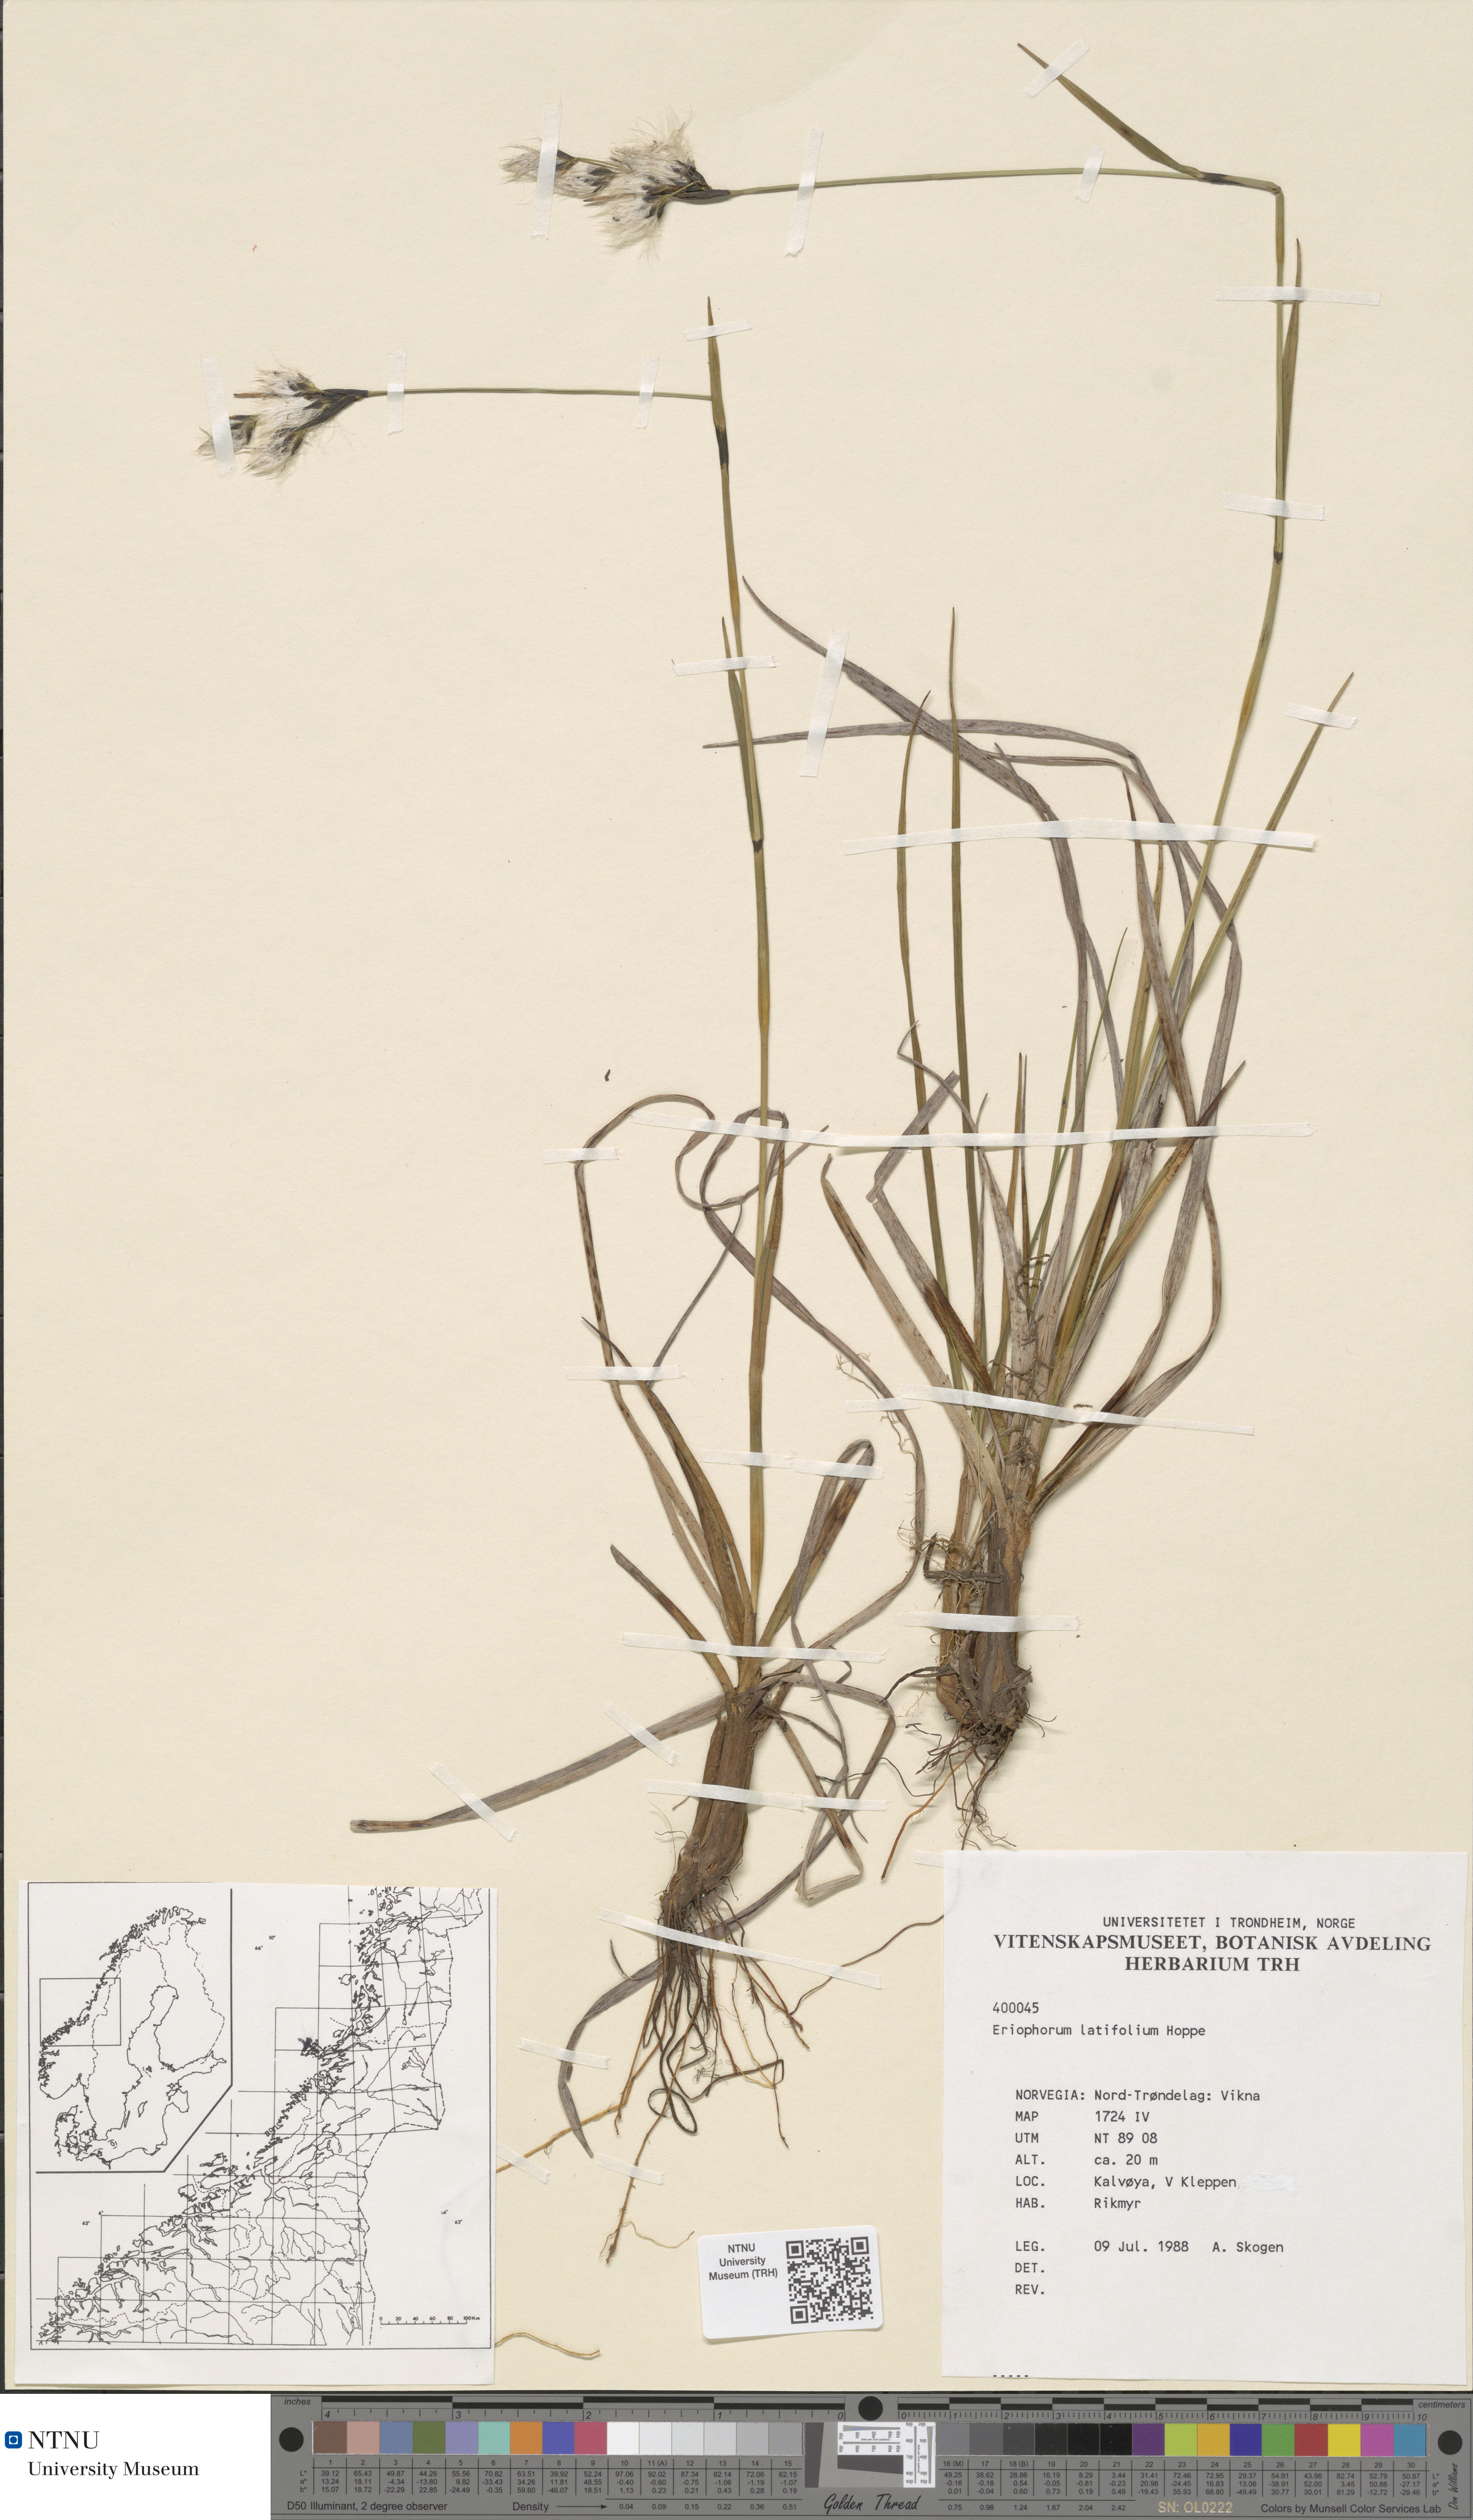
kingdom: Plantae
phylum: Tracheophyta
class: Liliopsida
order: Poales
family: Cyperaceae
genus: Eriophorum
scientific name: Eriophorum latifolium
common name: Broad-leaved cottongrass
